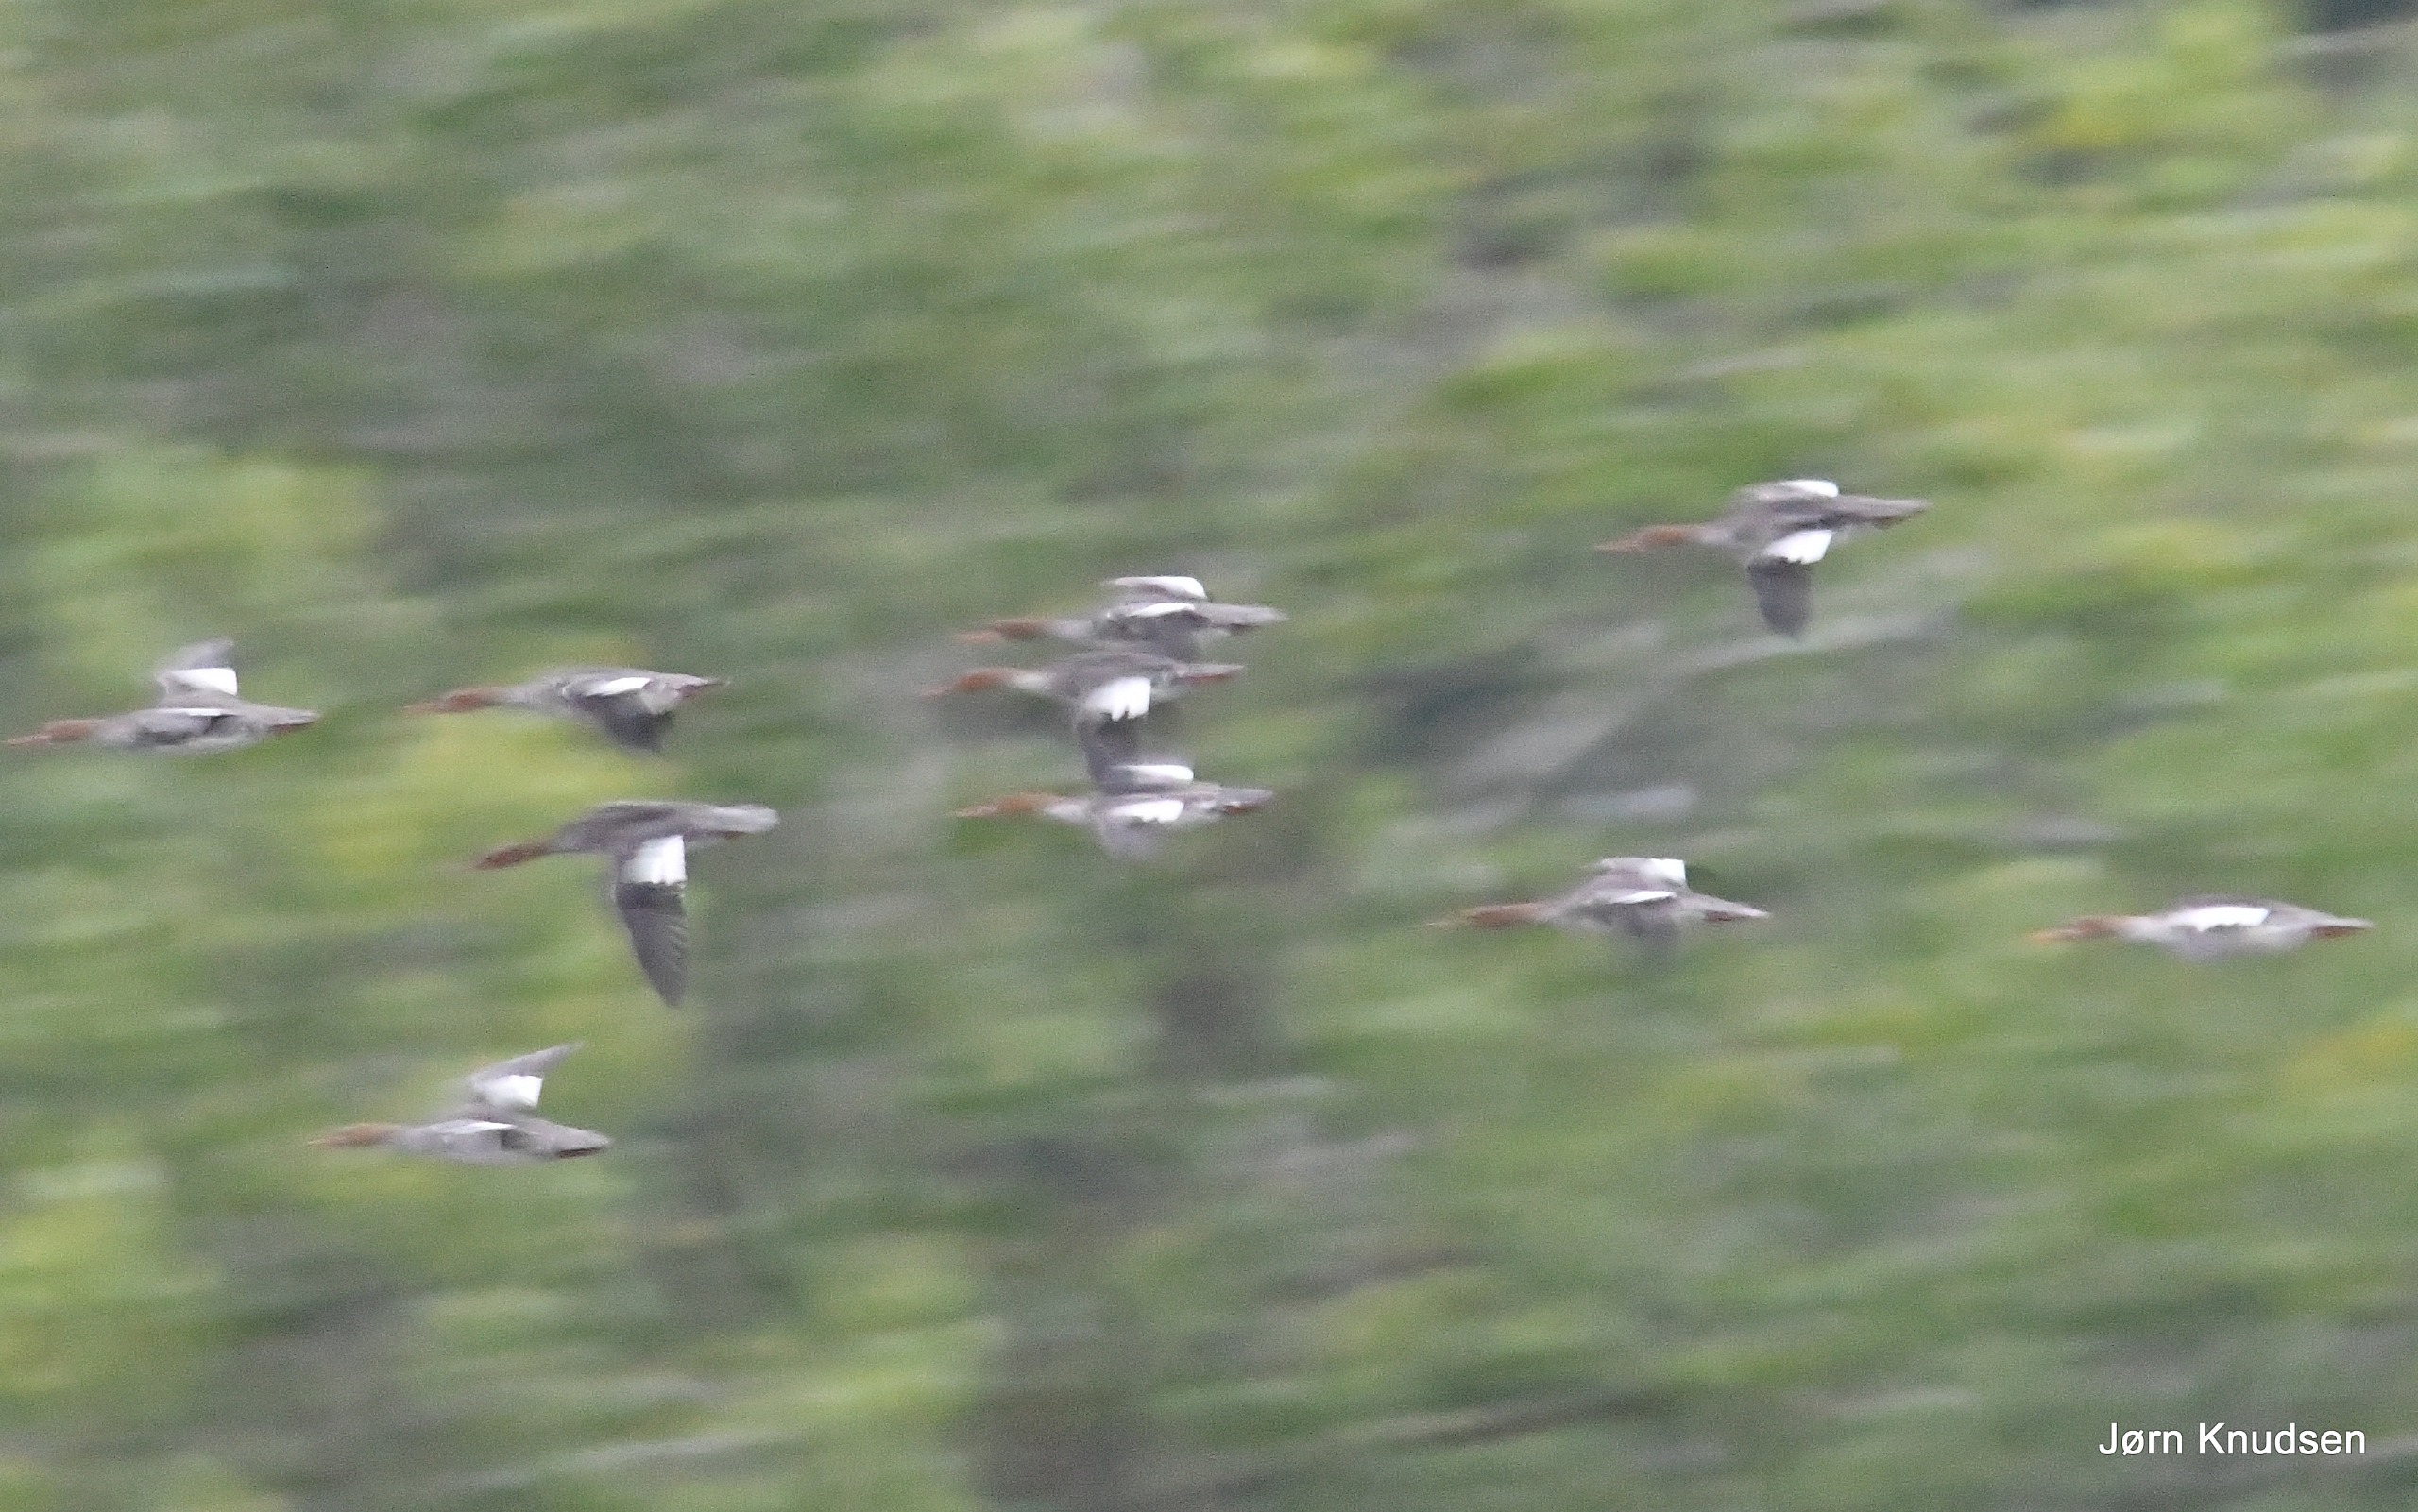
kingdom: Animalia
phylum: Chordata
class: Aves
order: Anseriformes
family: Anatidae
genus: Mergus
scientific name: Mergus serrator
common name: Toppet skallesluger
